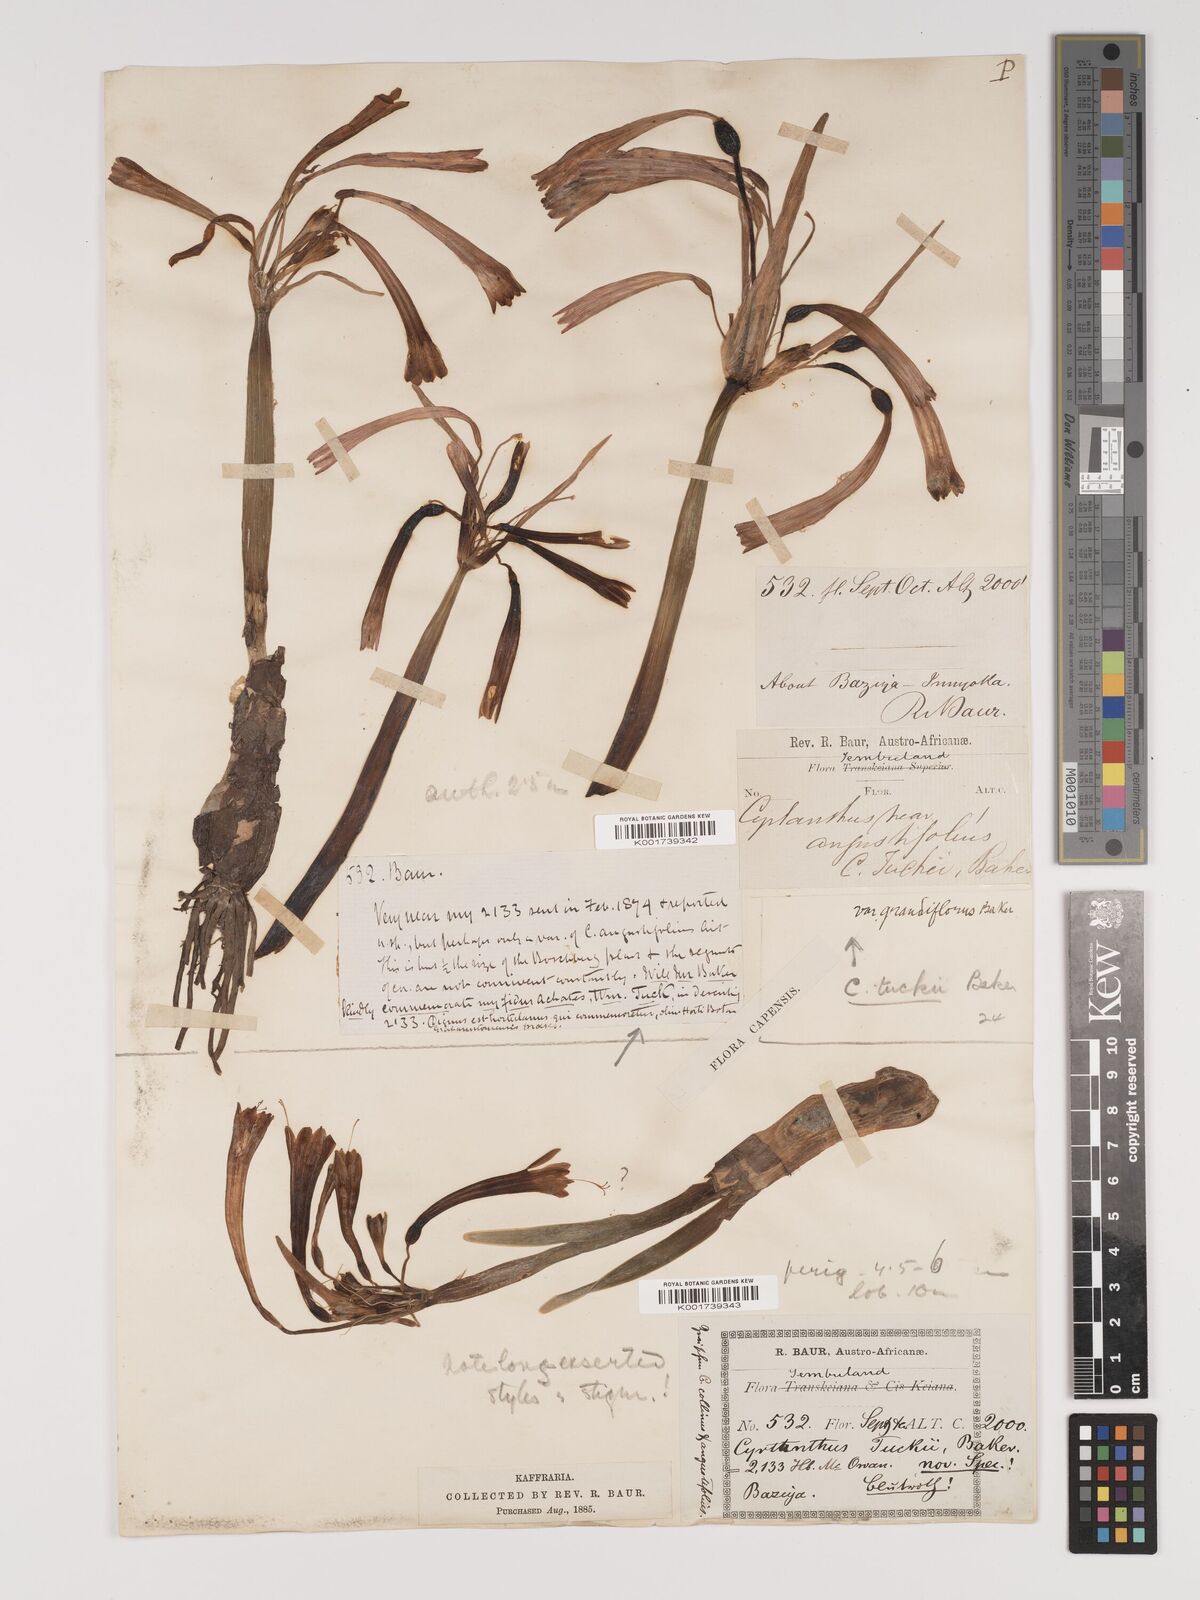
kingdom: Plantae
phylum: Tracheophyta
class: Liliopsida
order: Asparagales
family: Amaryllidaceae
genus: Cyrtanthus
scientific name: Cyrtanthus tuckii
